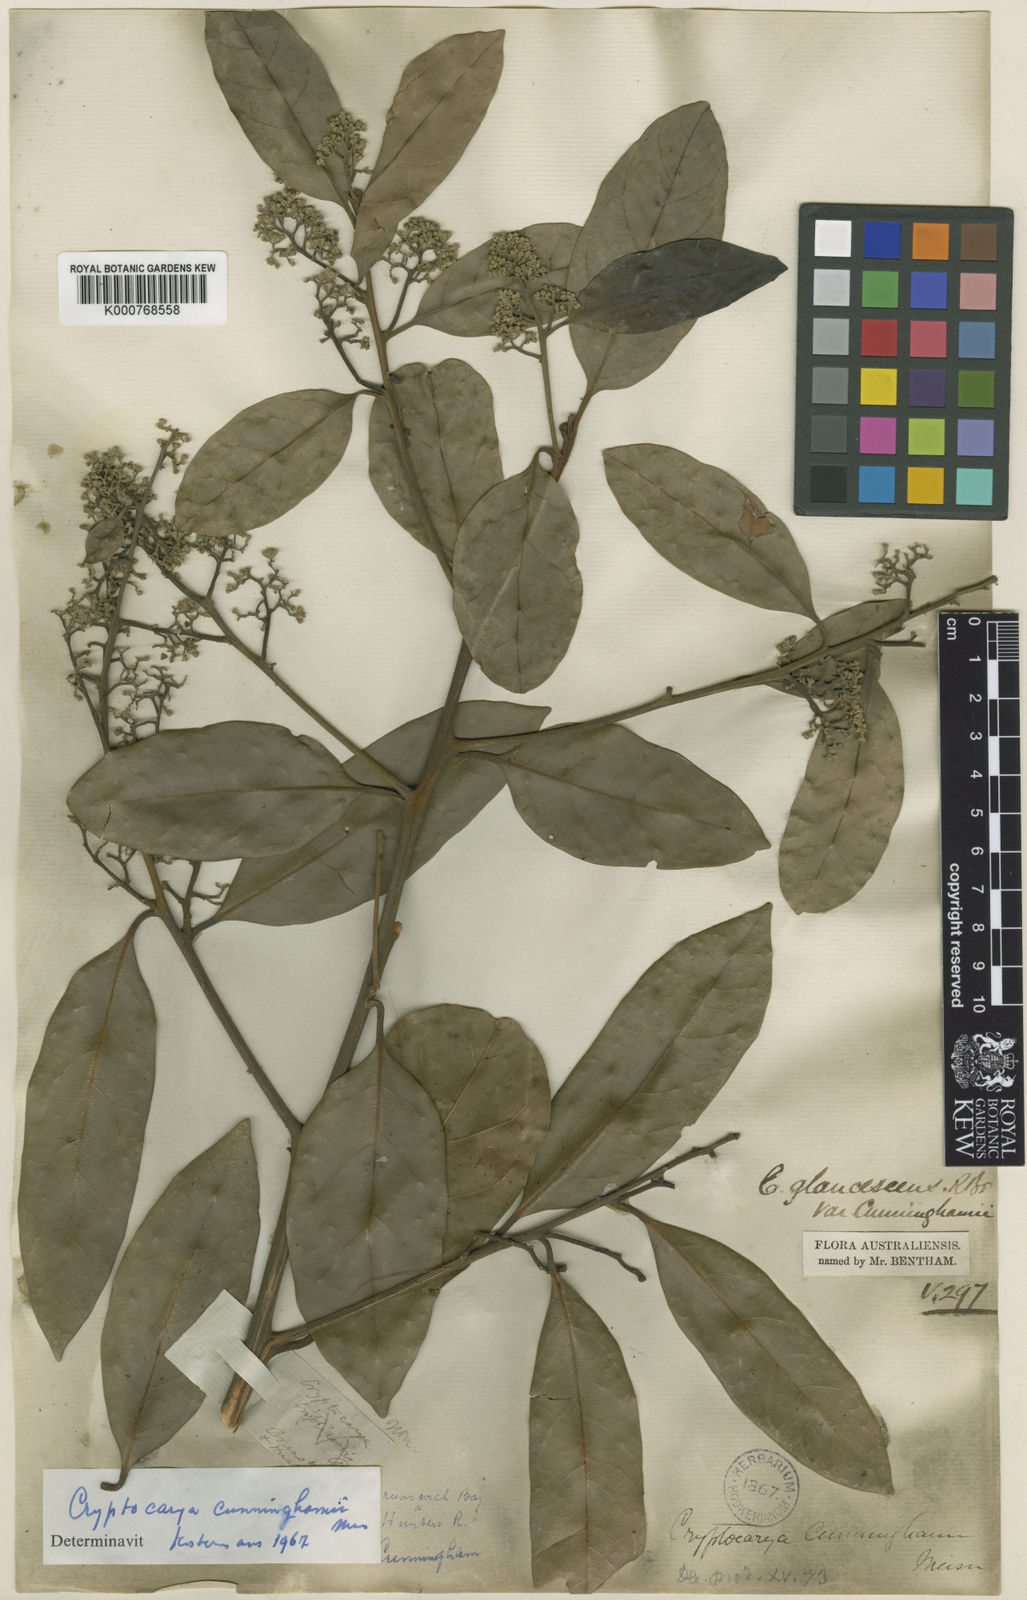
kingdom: Plantae
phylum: Tracheophyta
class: Magnoliopsida
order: Laurales
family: Lauraceae
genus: Cryptocarya
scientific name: Cryptocarya cunninghamii
